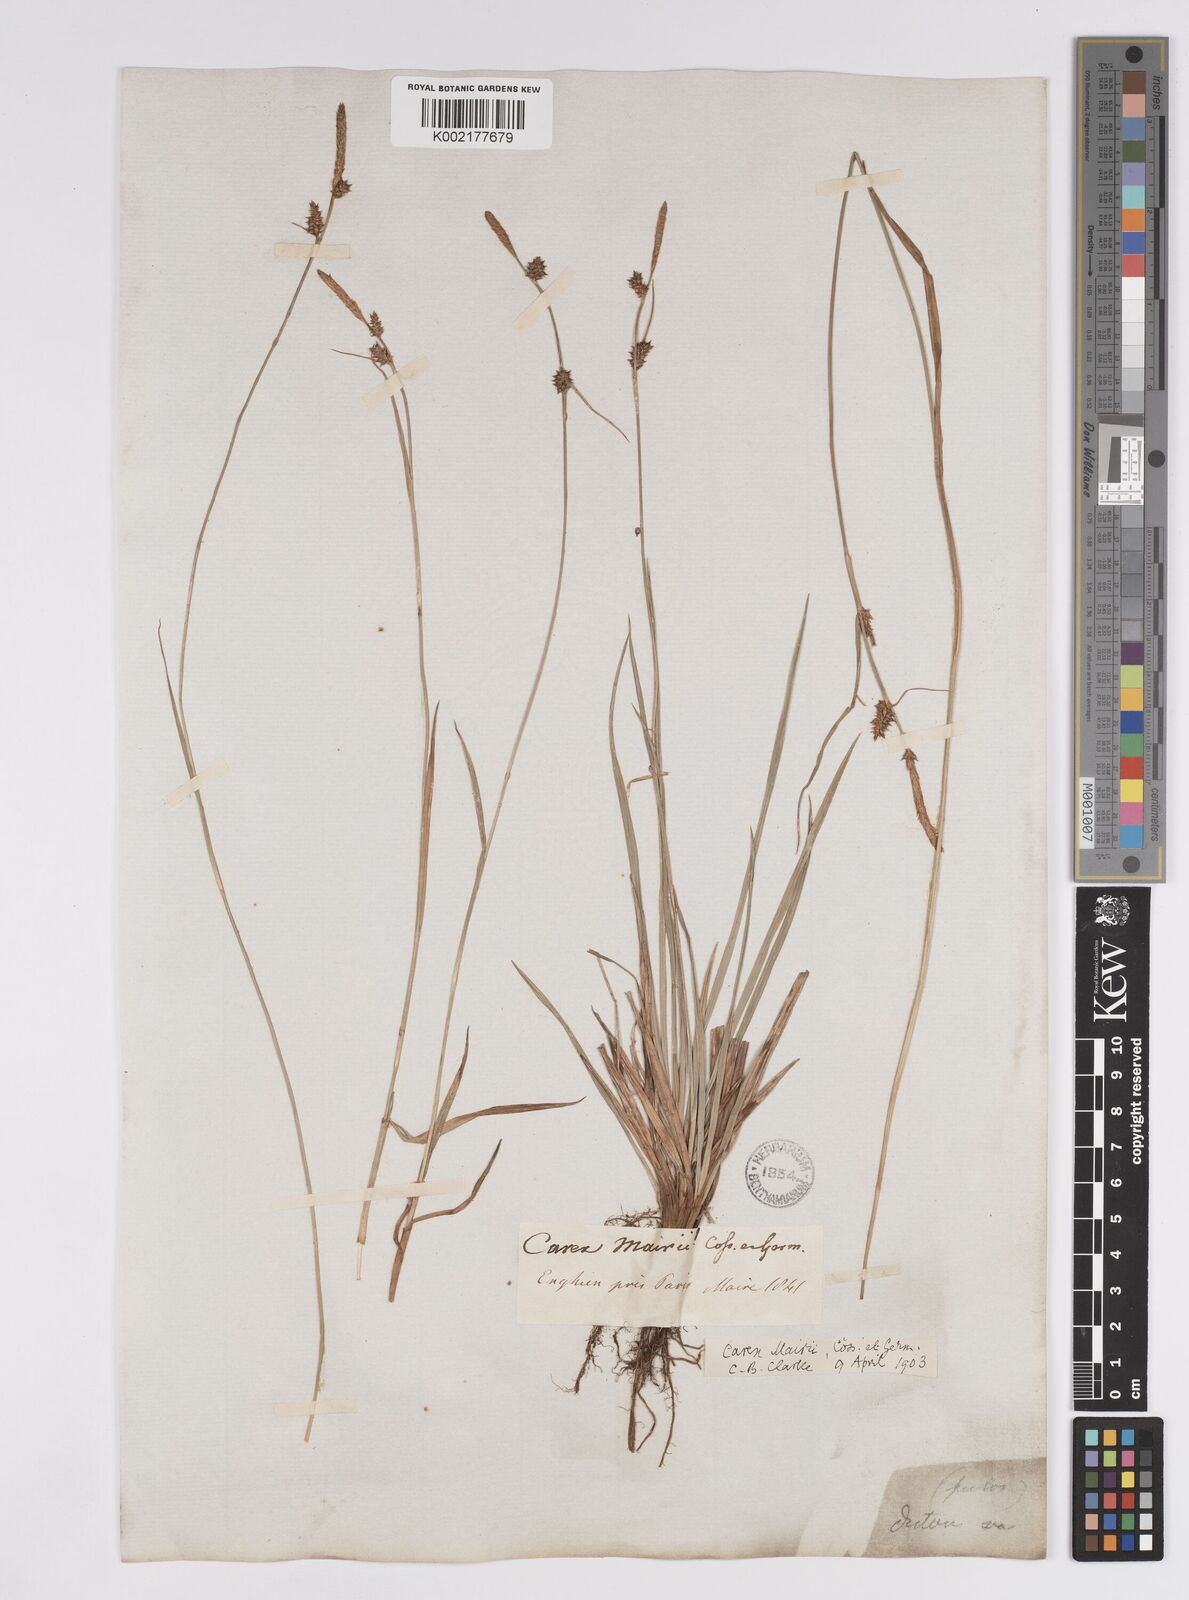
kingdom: Plantae
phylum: Tracheophyta
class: Liliopsida
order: Poales
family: Cyperaceae
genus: Carex
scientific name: Carex mairei
